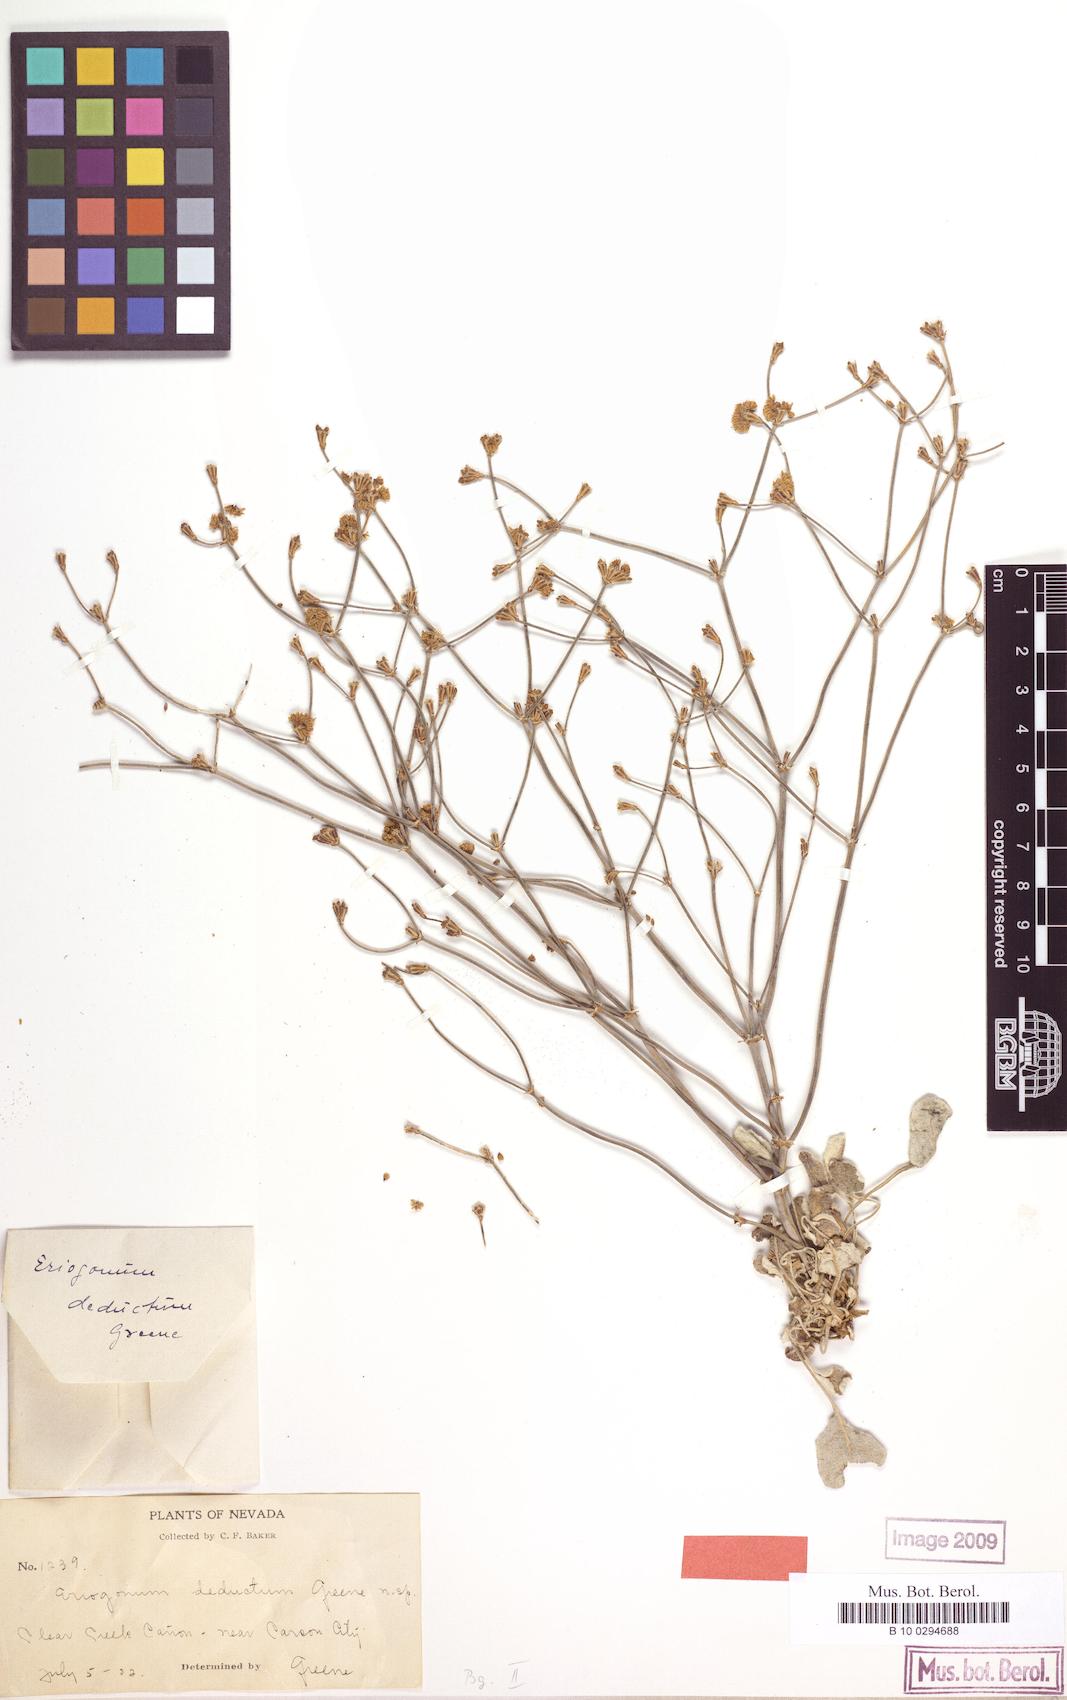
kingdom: Plantae
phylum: Tracheophyta
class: Magnoliopsida
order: Caryophyllales
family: Polygonaceae
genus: Eriogonum
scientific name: Eriogonum nudum
